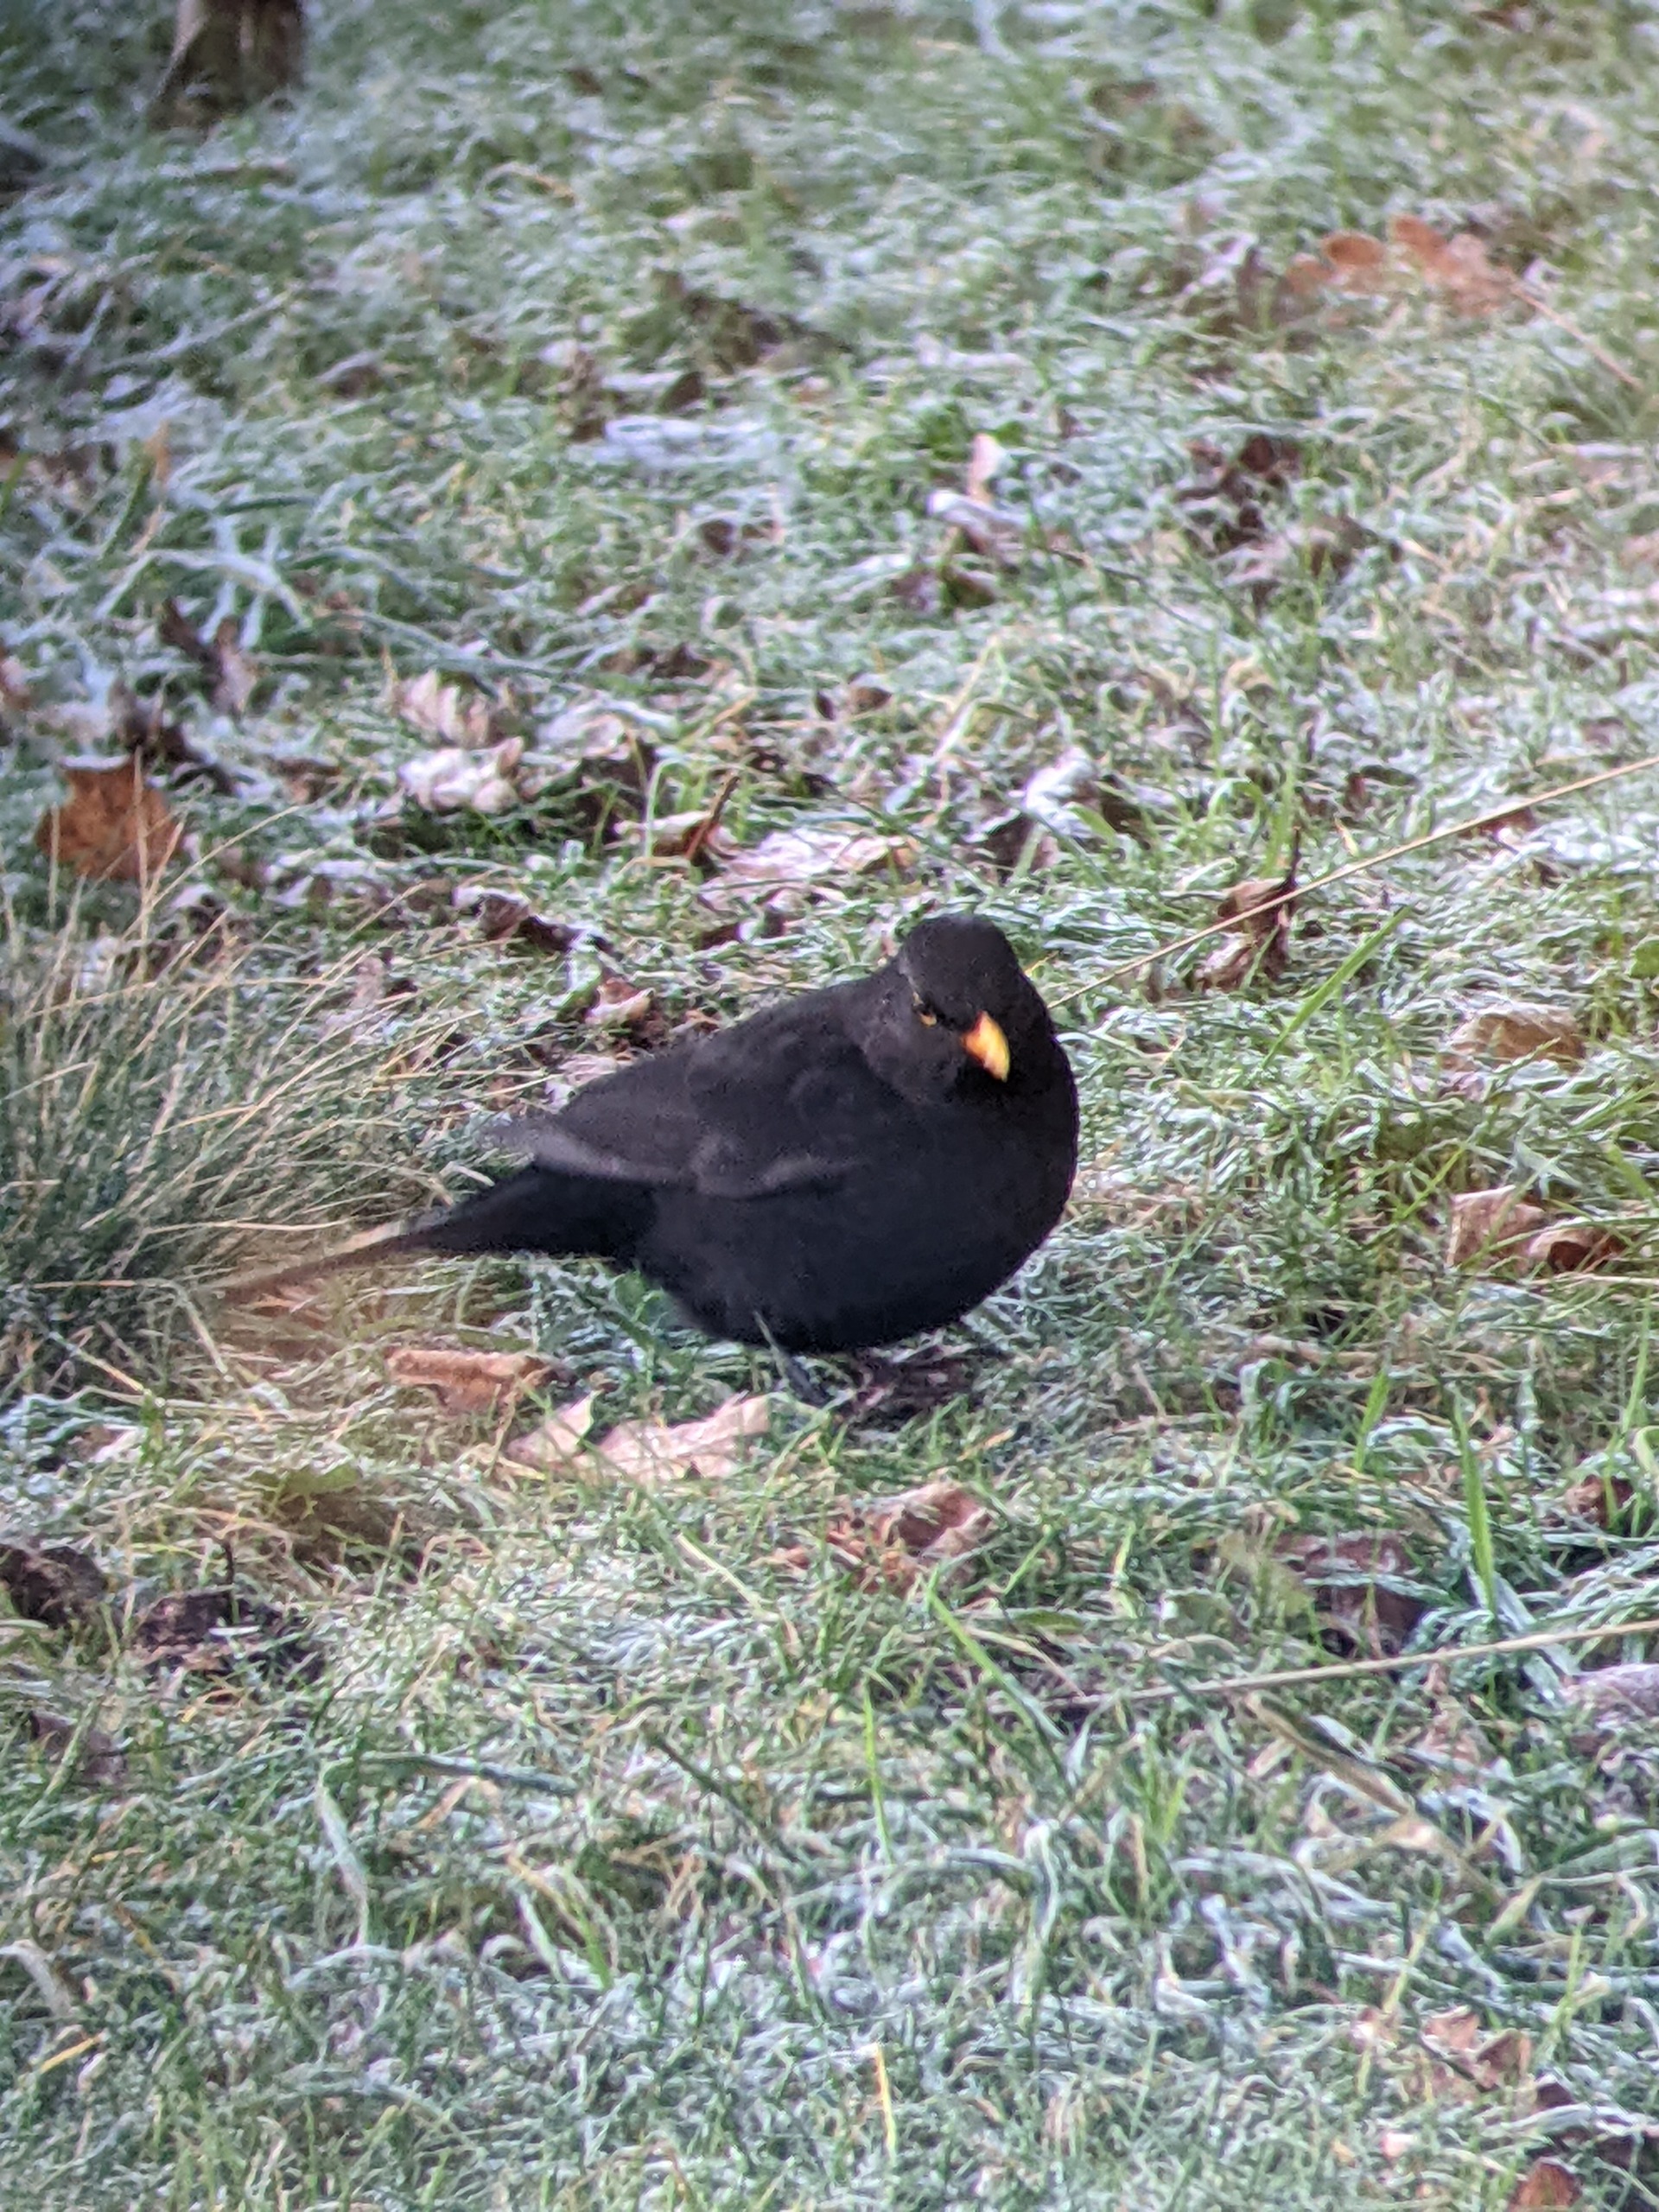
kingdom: Animalia
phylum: Chordata
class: Aves
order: Passeriformes
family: Turdidae
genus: Turdus
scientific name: Turdus merula
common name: Solsort
